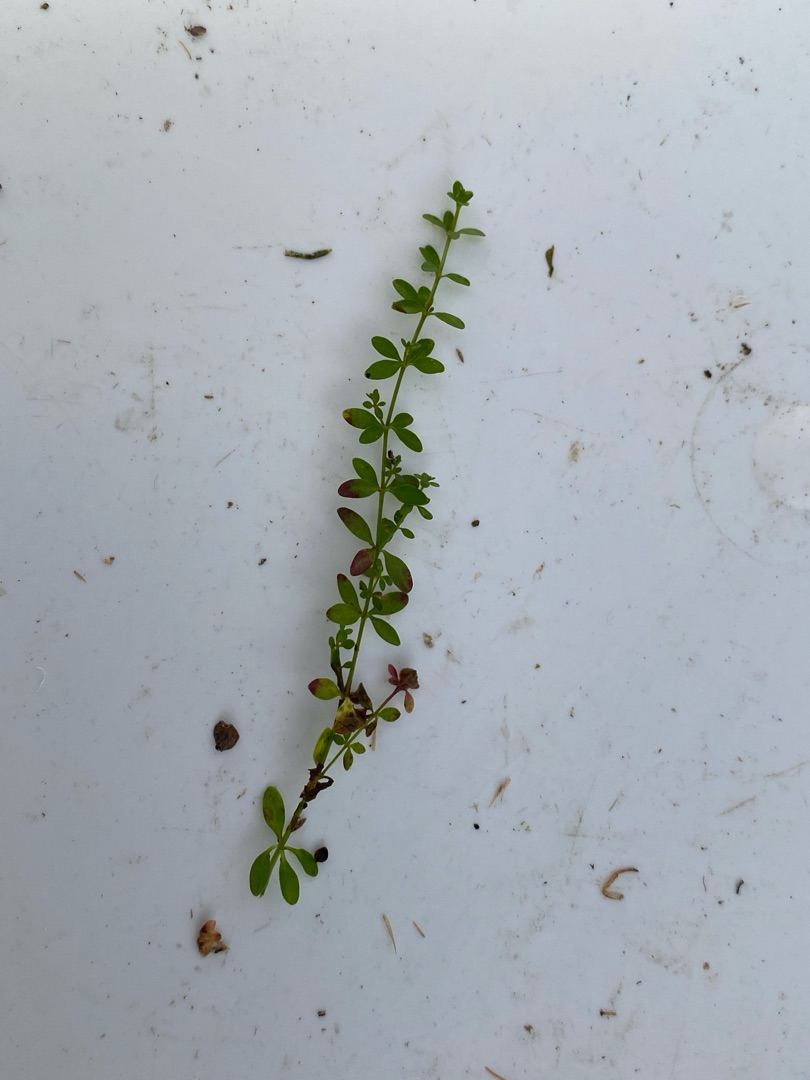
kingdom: Plantae
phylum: Tracheophyta
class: Magnoliopsida
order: Gentianales
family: Rubiaceae
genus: Galium
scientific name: Galium palustre
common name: Kær-snerre
